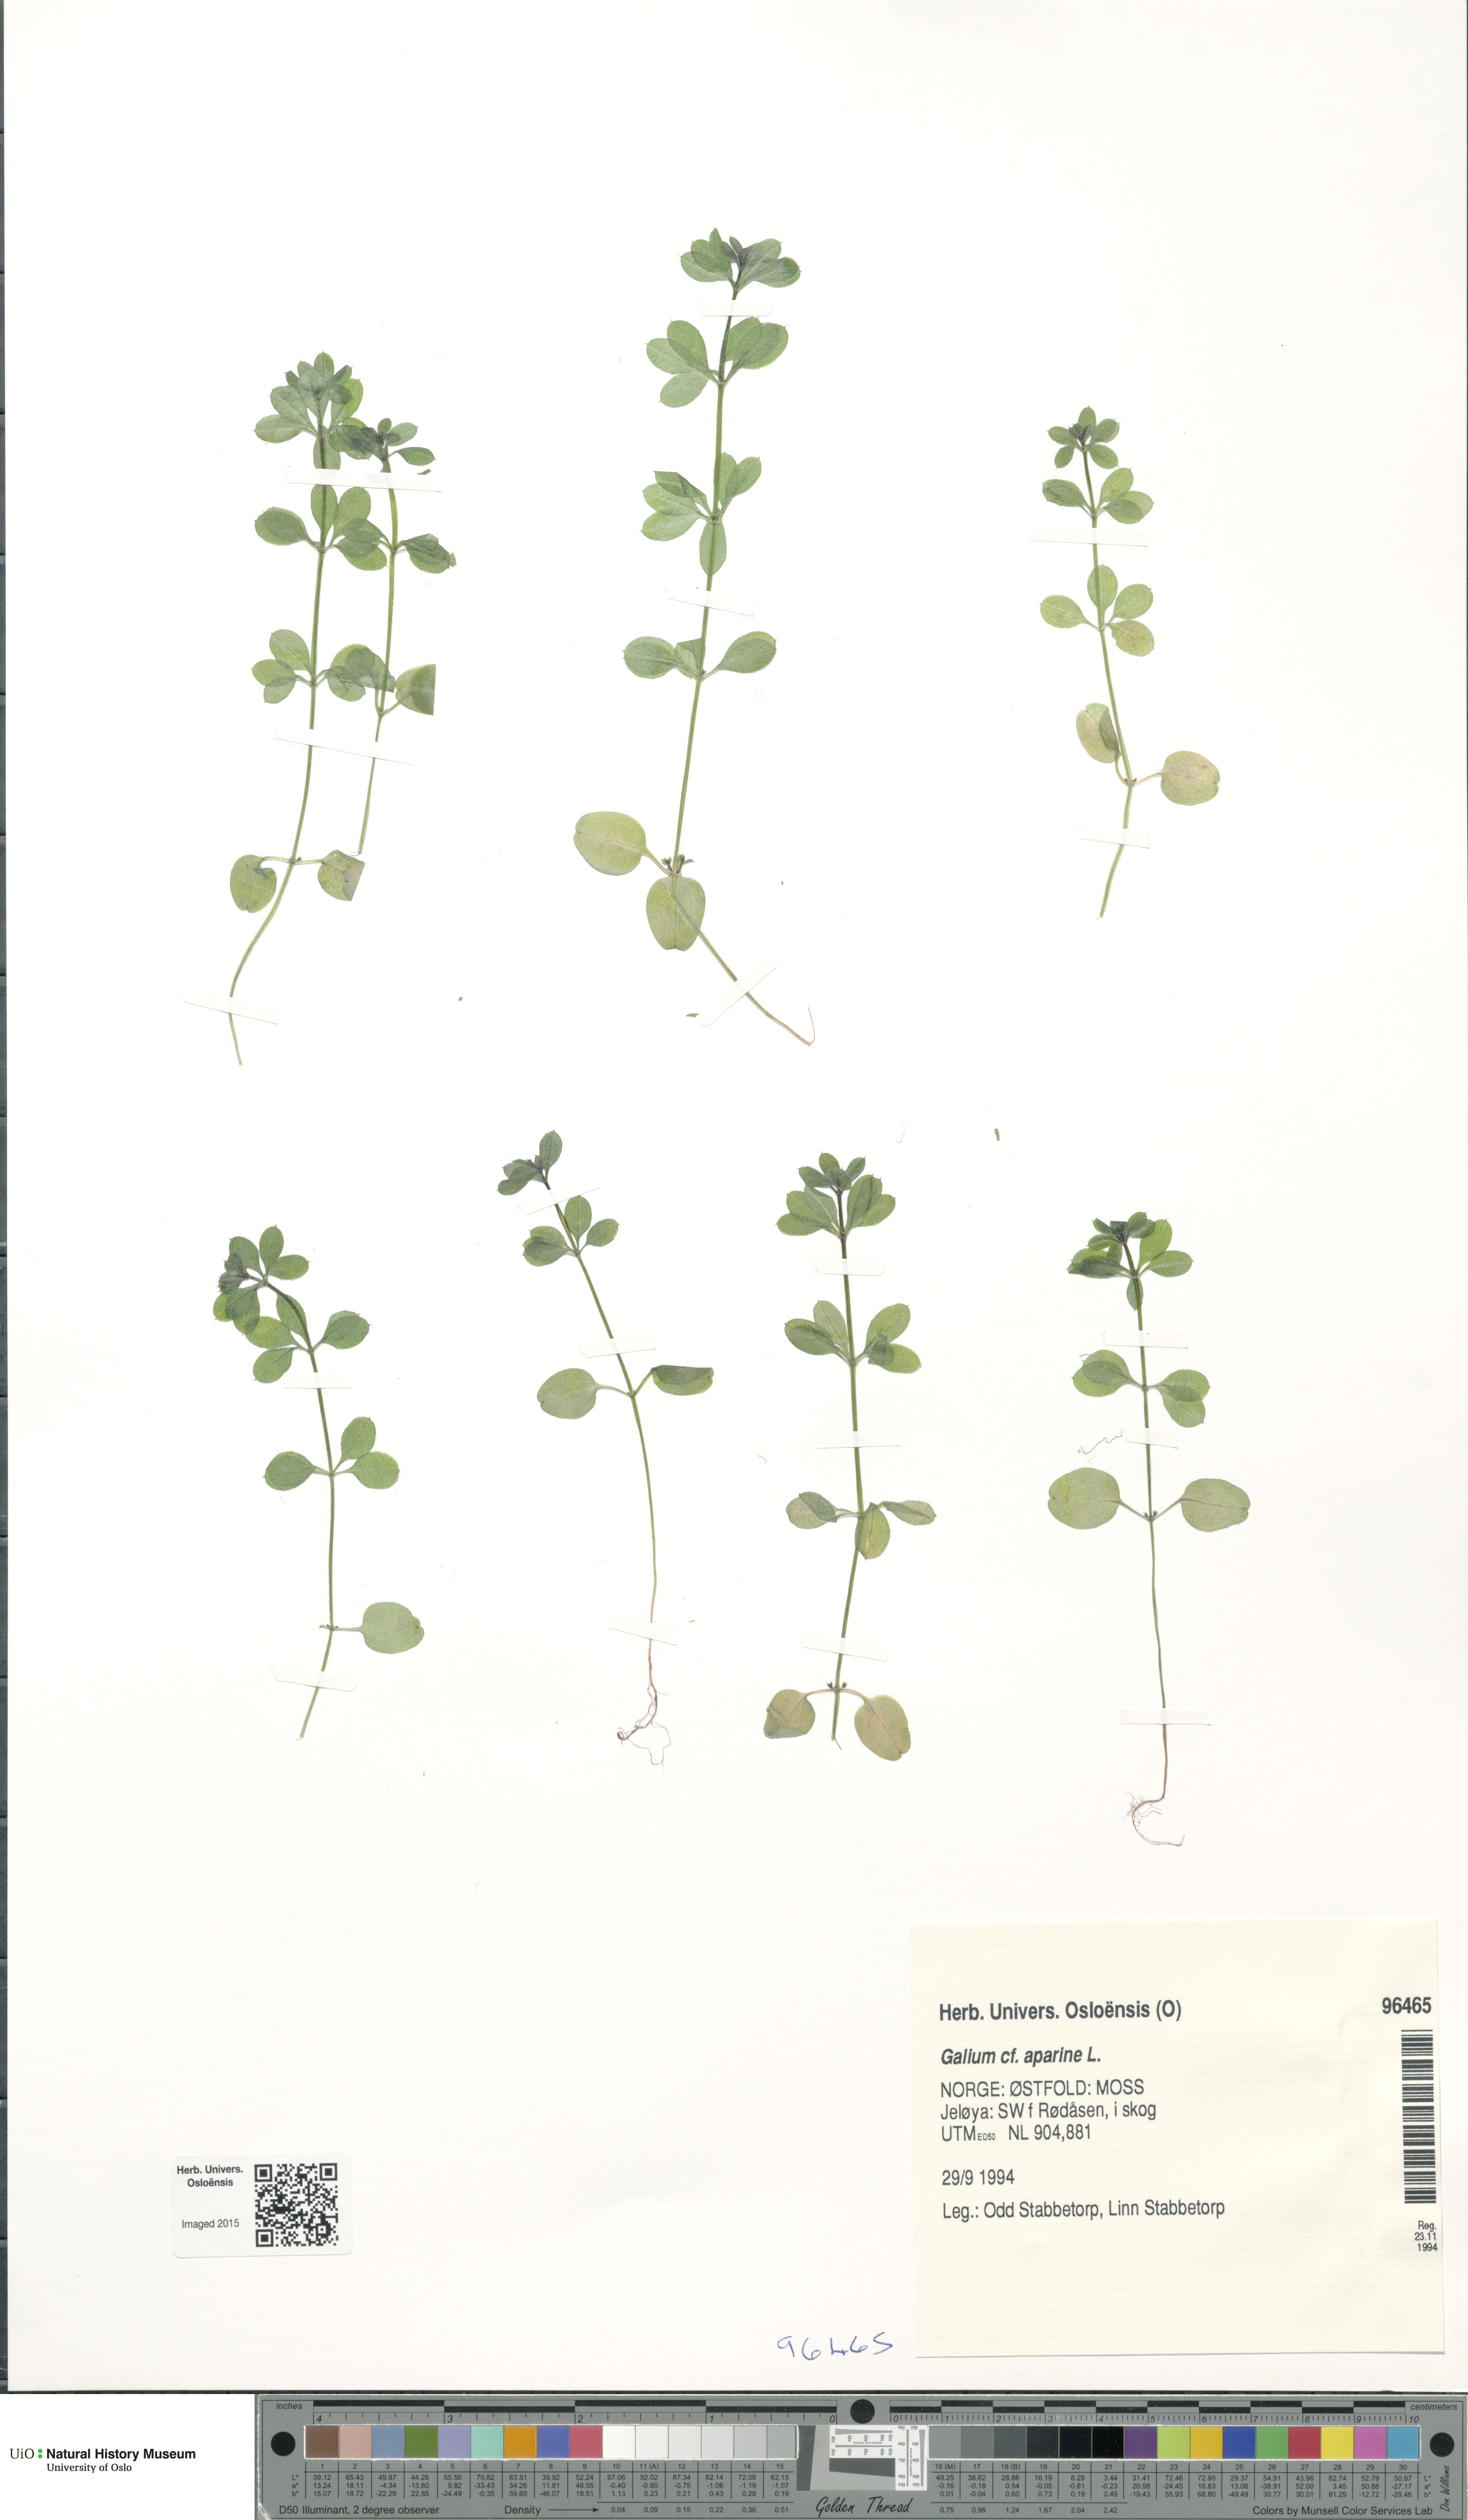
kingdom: Plantae
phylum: Tracheophyta
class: Magnoliopsida
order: Gentianales
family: Rubiaceae
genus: Galium
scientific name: Galium aparine
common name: Cleavers
